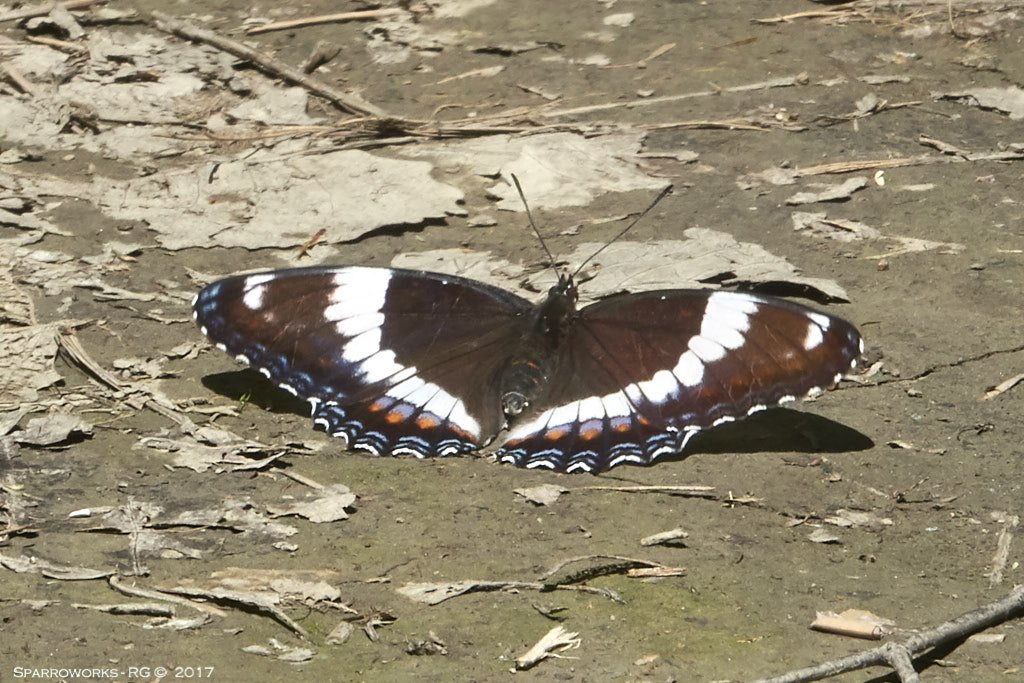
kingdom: Animalia
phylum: Arthropoda
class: Insecta
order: Lepidoptera
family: Nymphalidae
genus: Limenitis
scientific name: Limenitis arthemis
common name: Red-spotted Admiral
